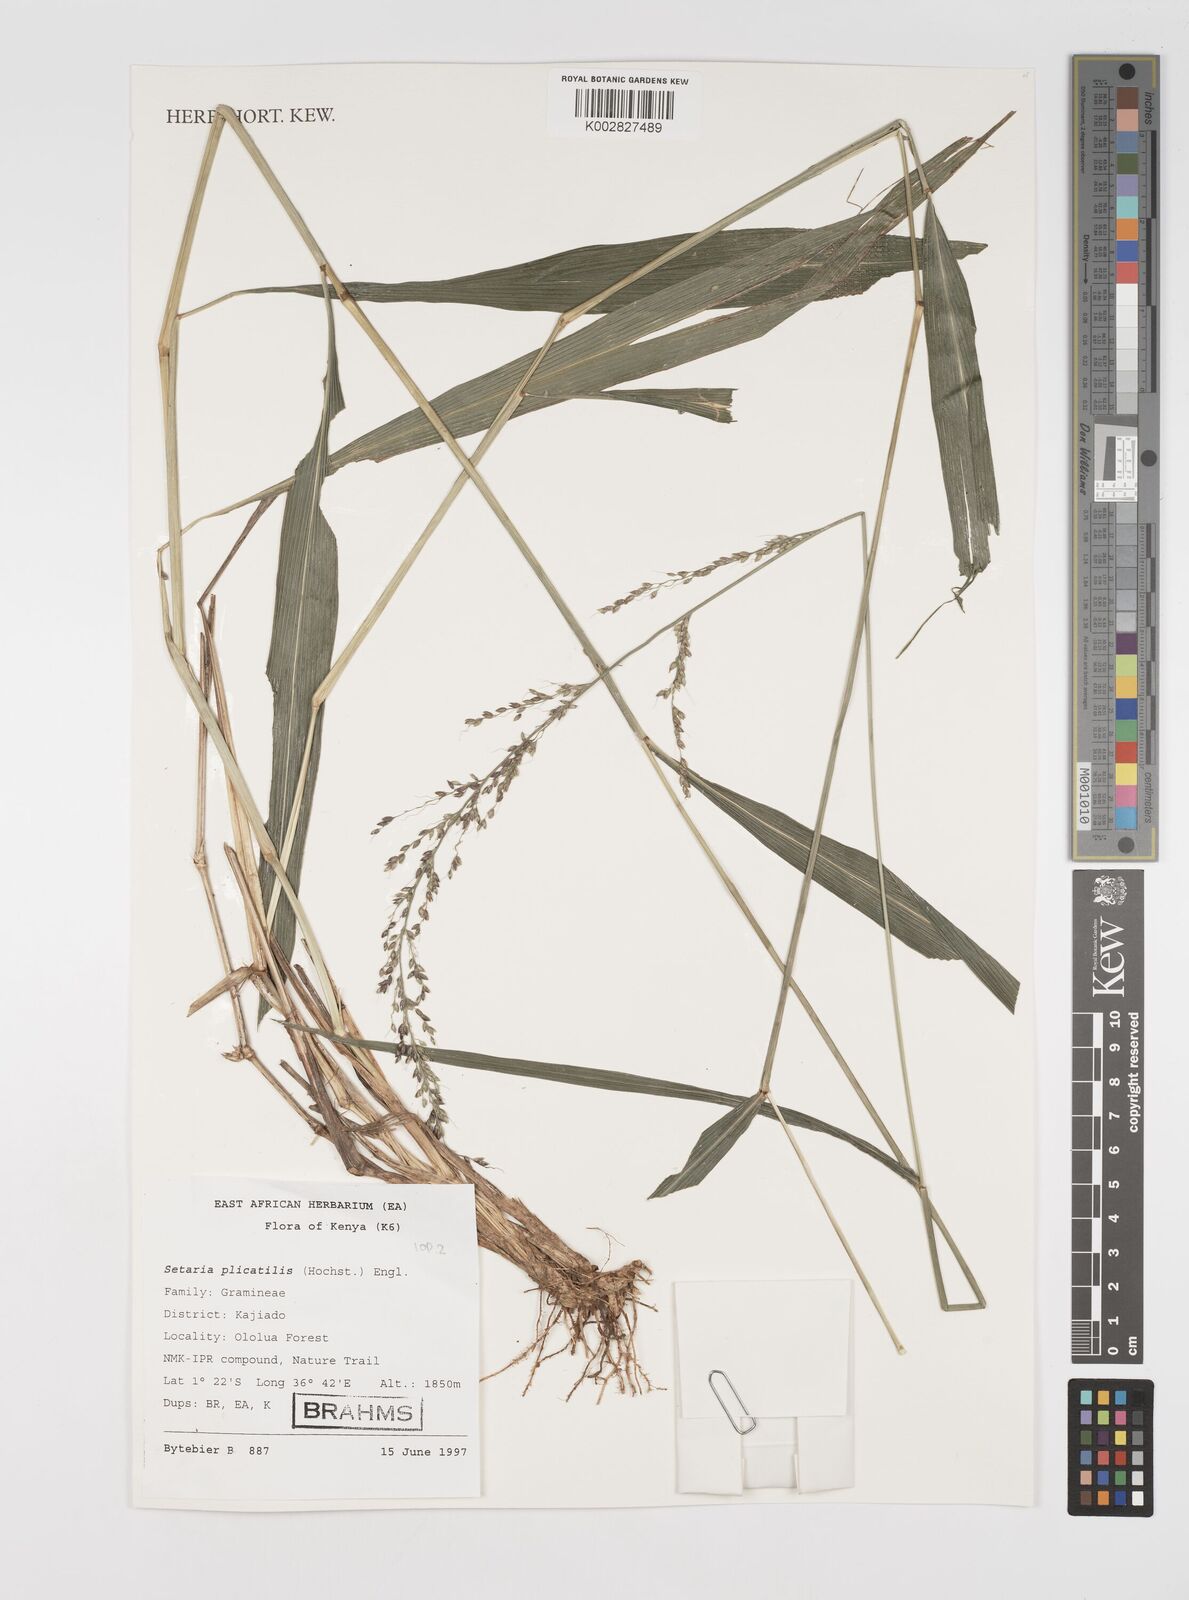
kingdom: Plantae
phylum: Tracheophyta
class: Liliopsida
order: Poales
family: Poaceae
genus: Setaria
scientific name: Setaria megaphylla
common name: Bigleaf bristlegrass
